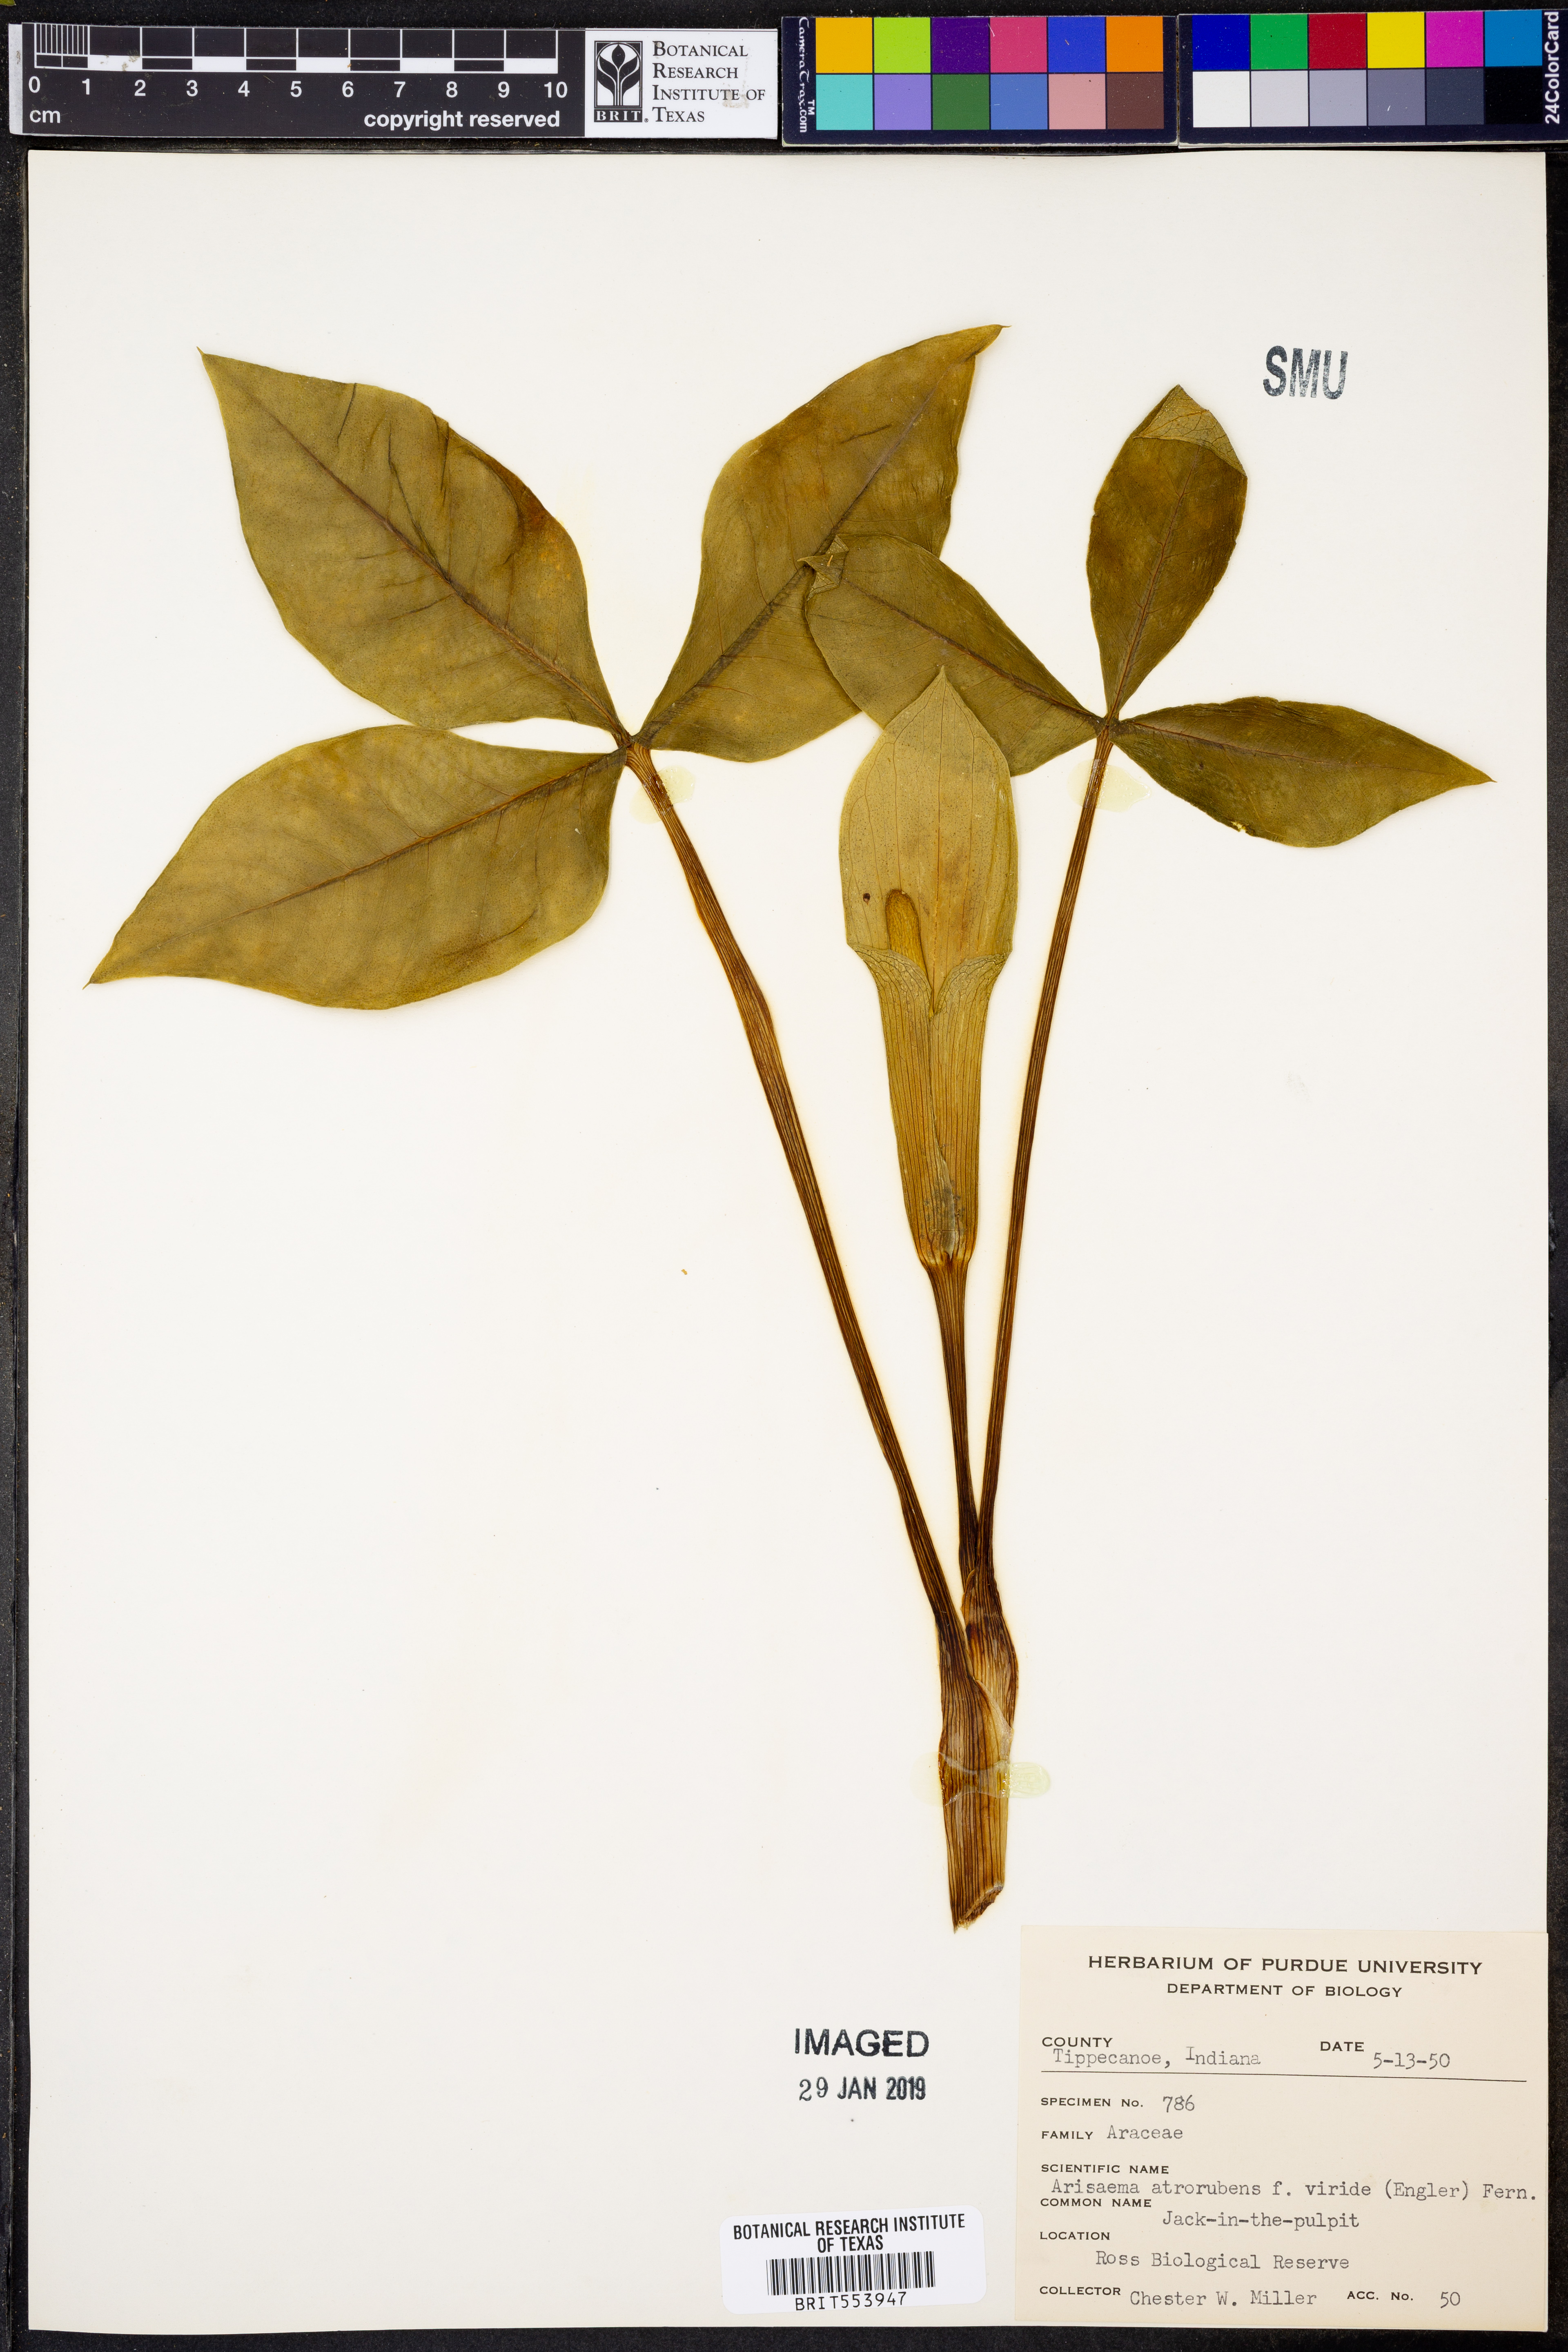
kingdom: Plantae
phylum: Tracheophyta
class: Liliopsida
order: Alismatales
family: Araceae
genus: Arisaema
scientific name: Arisaema triphyllum
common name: Jack-in-the-pulpit
